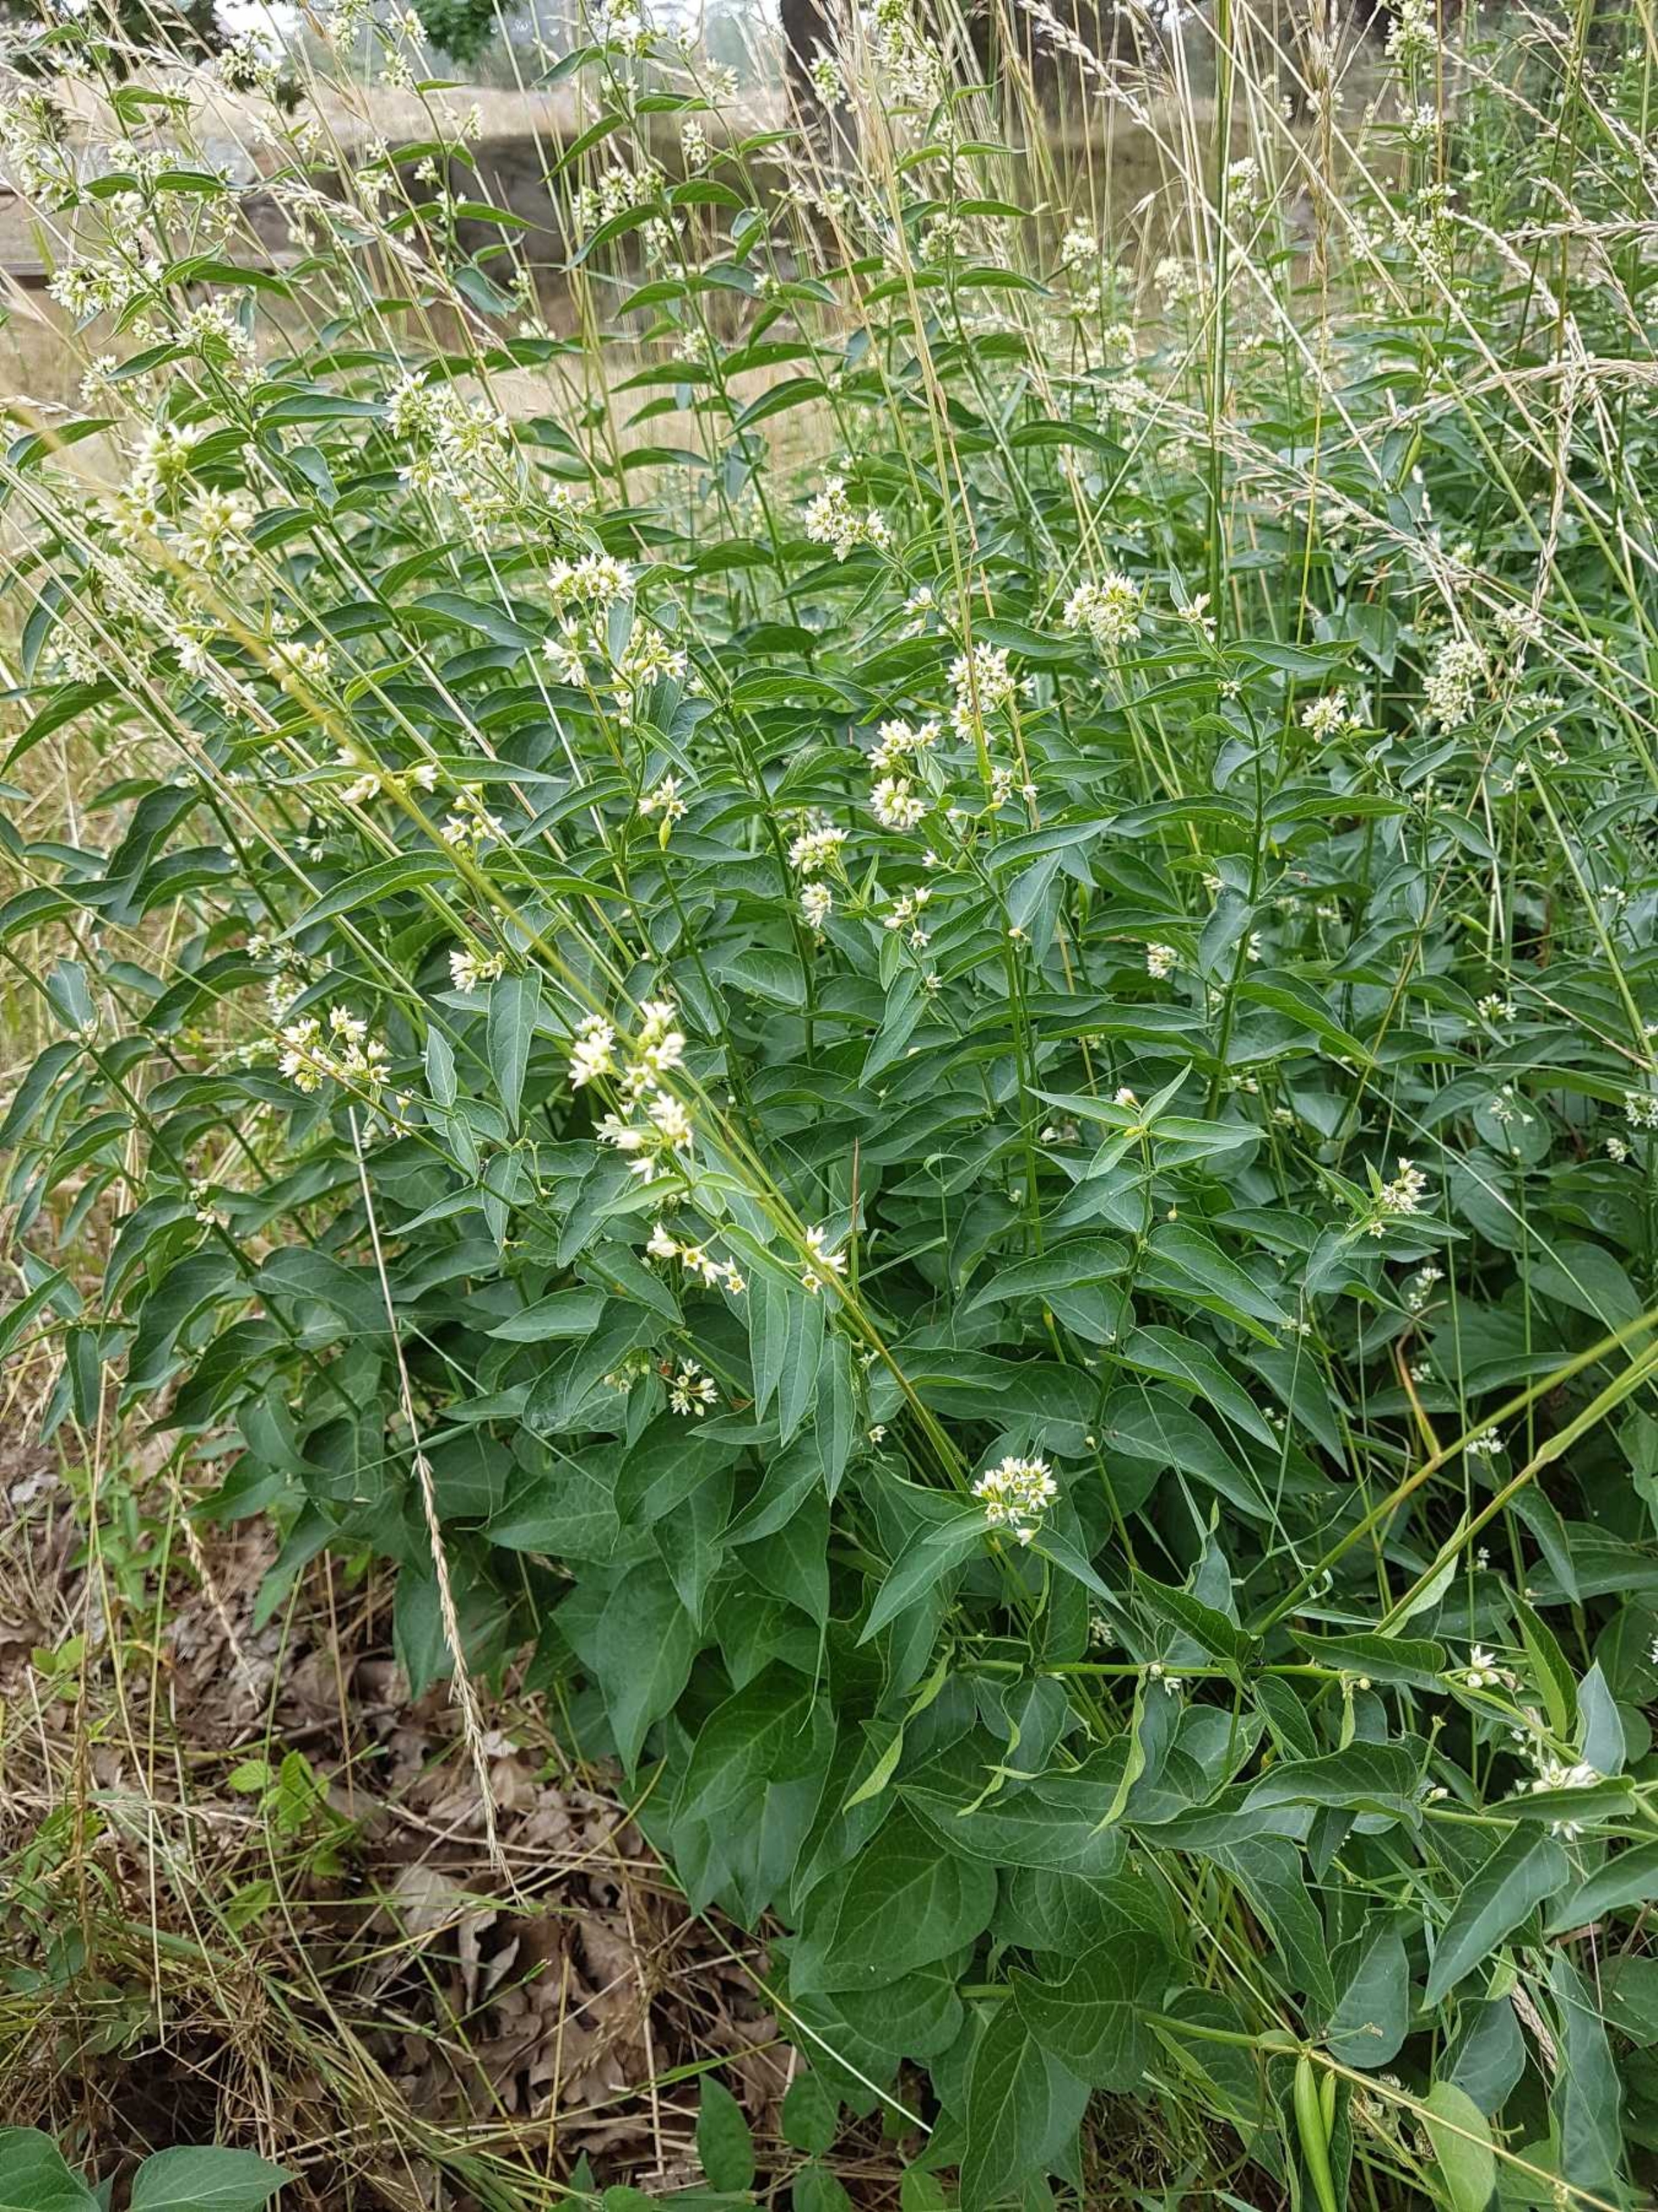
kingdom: Plantae
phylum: Tracheophyta
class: Magnoliopsida
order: Gentianales
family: Apocynaceae
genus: Vincetoxicum
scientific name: Vincetoxicum hirundinaria
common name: Svalerod
